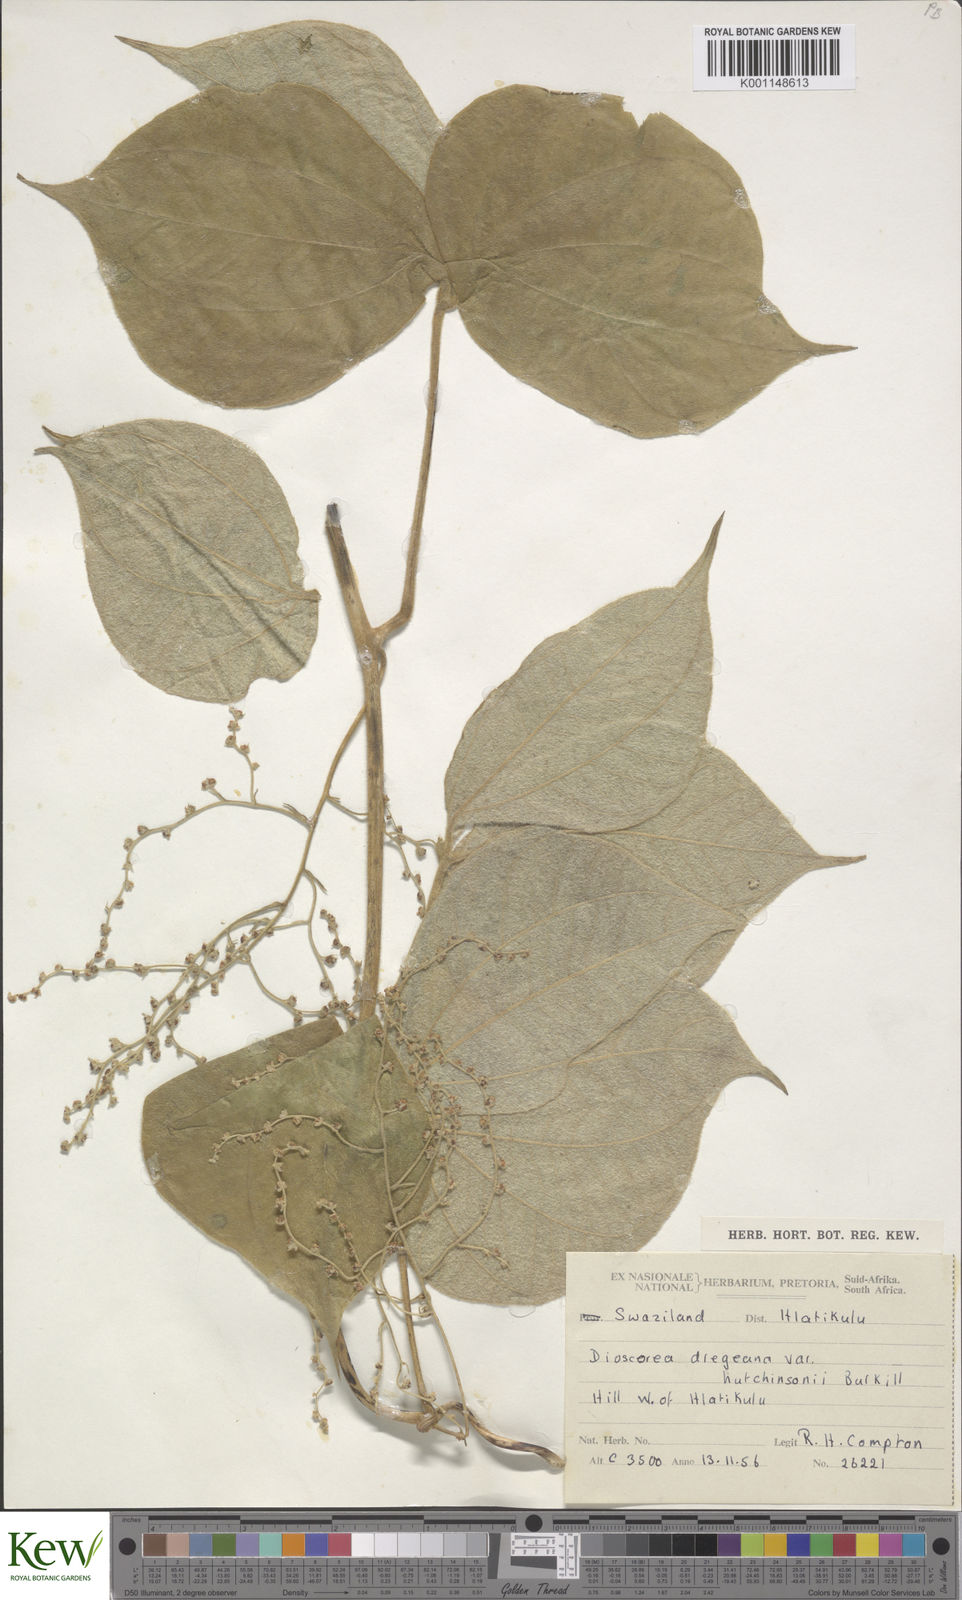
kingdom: Plantae
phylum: Tracheophyta
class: Liliopsida
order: Dioscoreales
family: Dioscoreaceae
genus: Dioscorea
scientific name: Dioscorea dregeana
